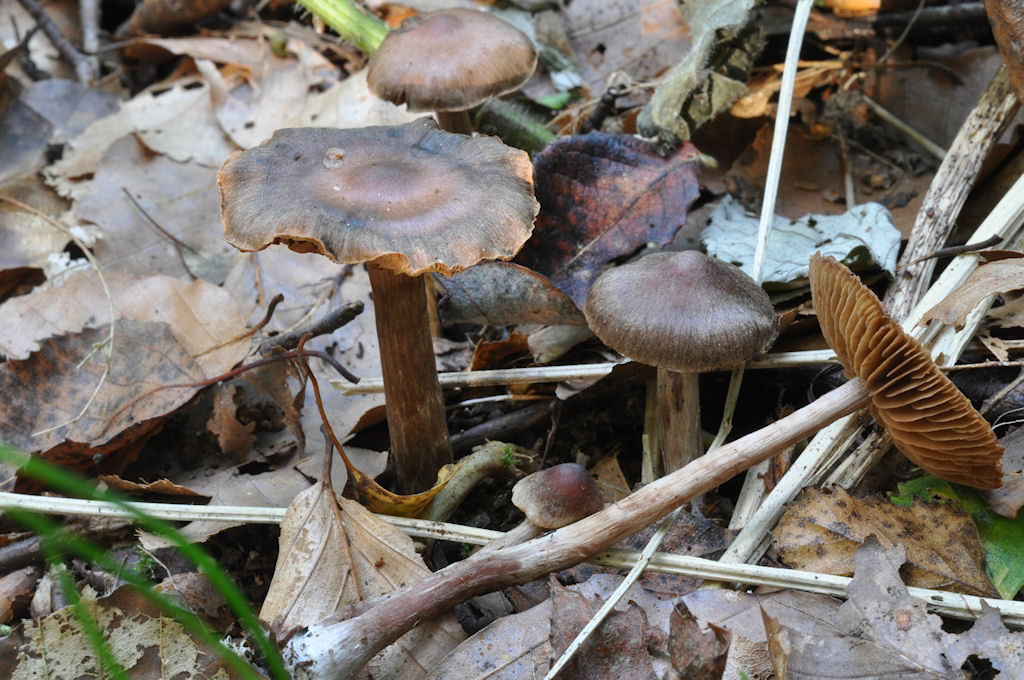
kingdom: Fungi
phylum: Basidiomycota
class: Agaricomycetes
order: Agaricales
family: Cortinariaceae
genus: Cortinarius
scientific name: Cortinarius umbrinolens
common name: mørk slørhat
